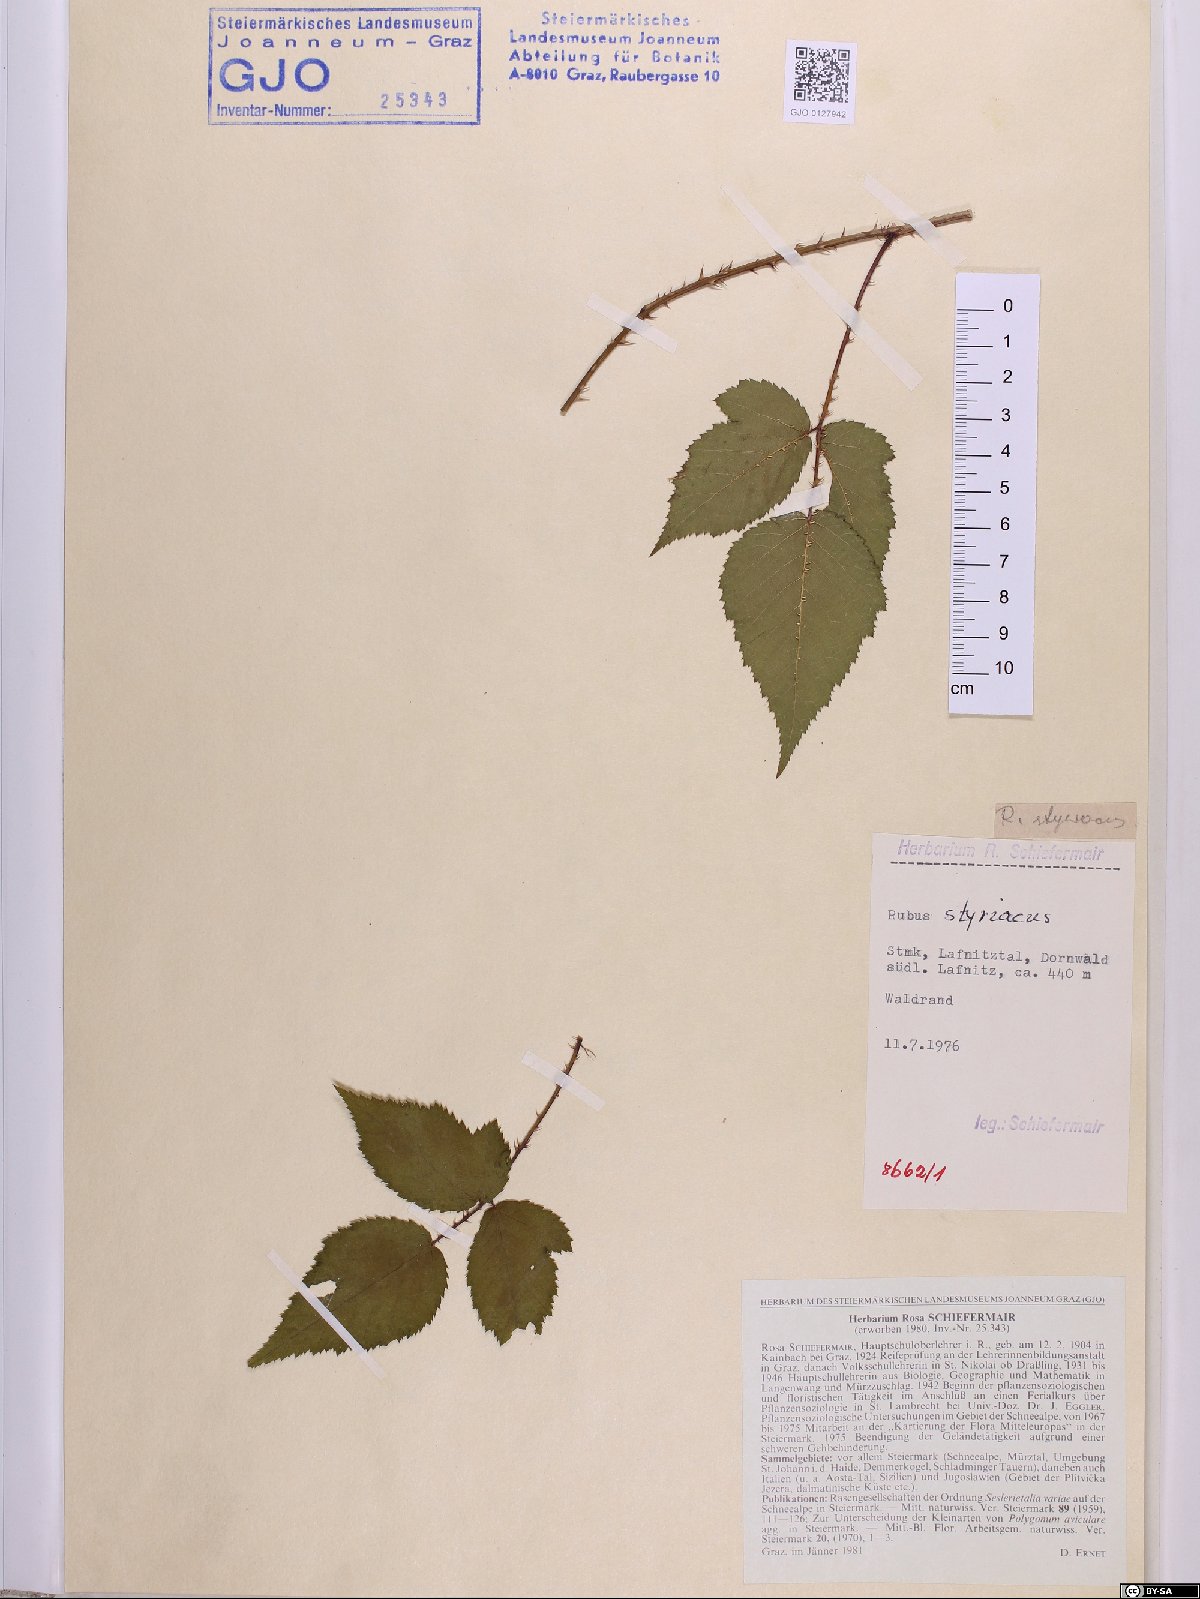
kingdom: Plantae
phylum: Tracheophyta
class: Magnoliopsida
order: Rosales
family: Rosaceae
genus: Rubus
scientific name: Rubus styriacus
